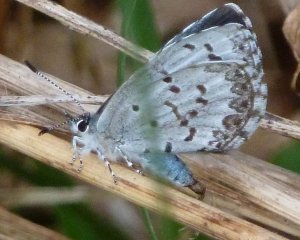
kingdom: Animalia
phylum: Arthropoda
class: Insecta
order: Lepidoptera
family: Lycaenidae
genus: Celastrina
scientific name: Celastrina lucia
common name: Northern Spring Azure
